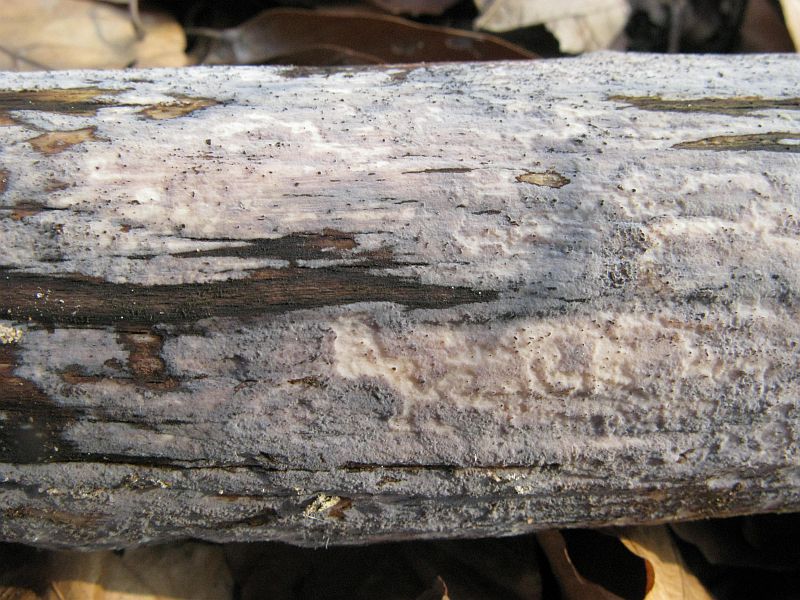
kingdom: Fungi
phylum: Basidiomycota
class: Agaricomycetes
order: Polyporales
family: Phanerochaetaceae
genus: Bjerkandera
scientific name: Bjerkandera adusta
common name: sveden sodporesvamp
